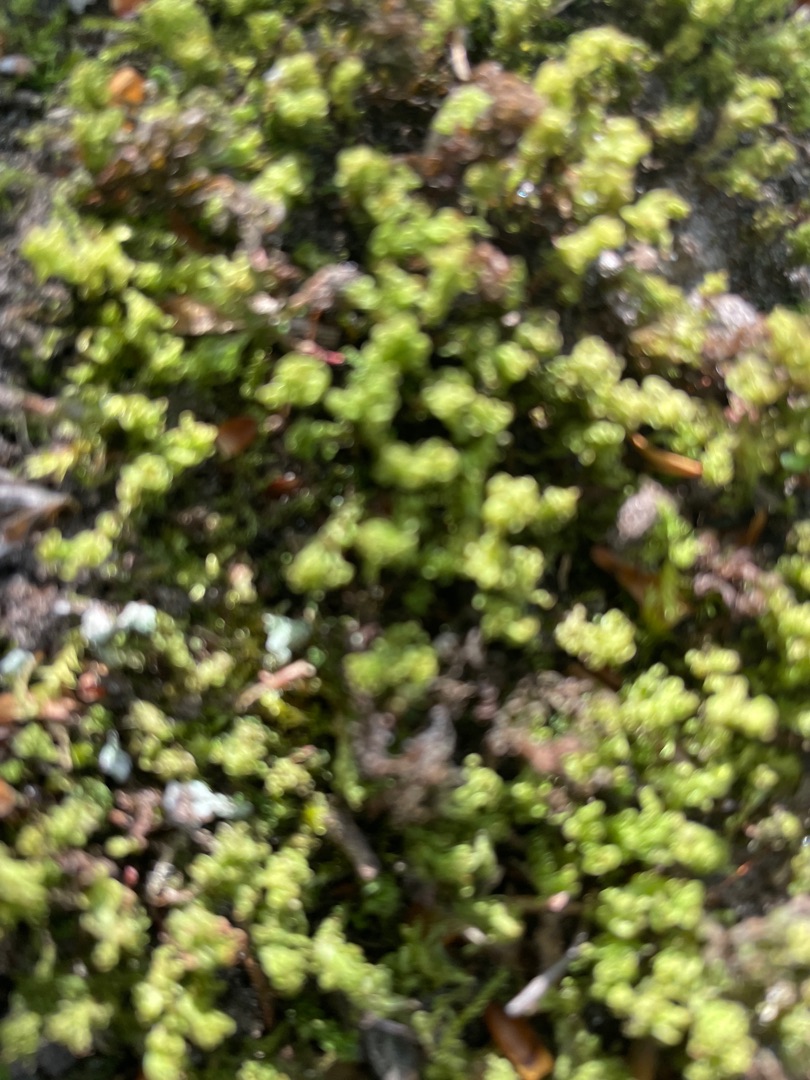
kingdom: Plantae
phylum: Bryophyta
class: Polytrichopsida
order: Polytrichales
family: Polytrichaceae
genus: Atrichum
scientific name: Atrichum undulatum
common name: Bølget katrinemos
